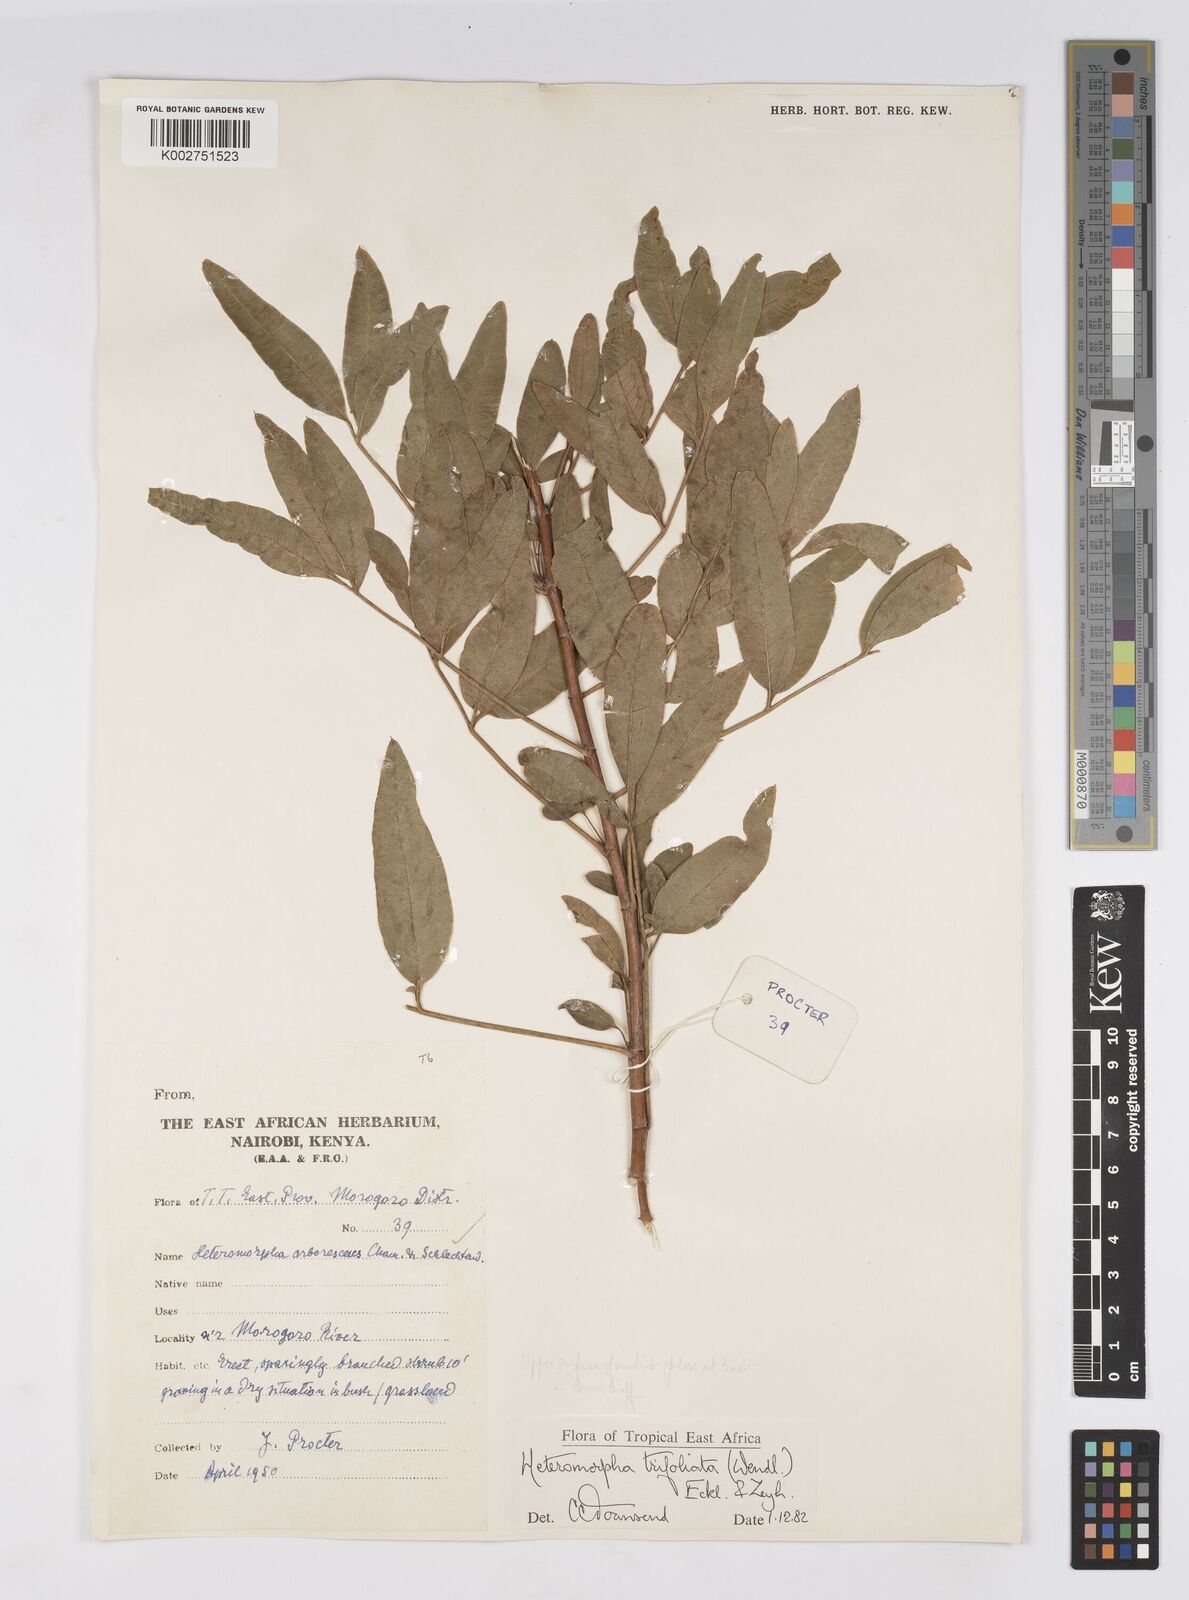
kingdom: Plantae
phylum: Tracheophyta
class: Magnoliopsida
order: Apiales
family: Apiaceae
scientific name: Apiaceae
